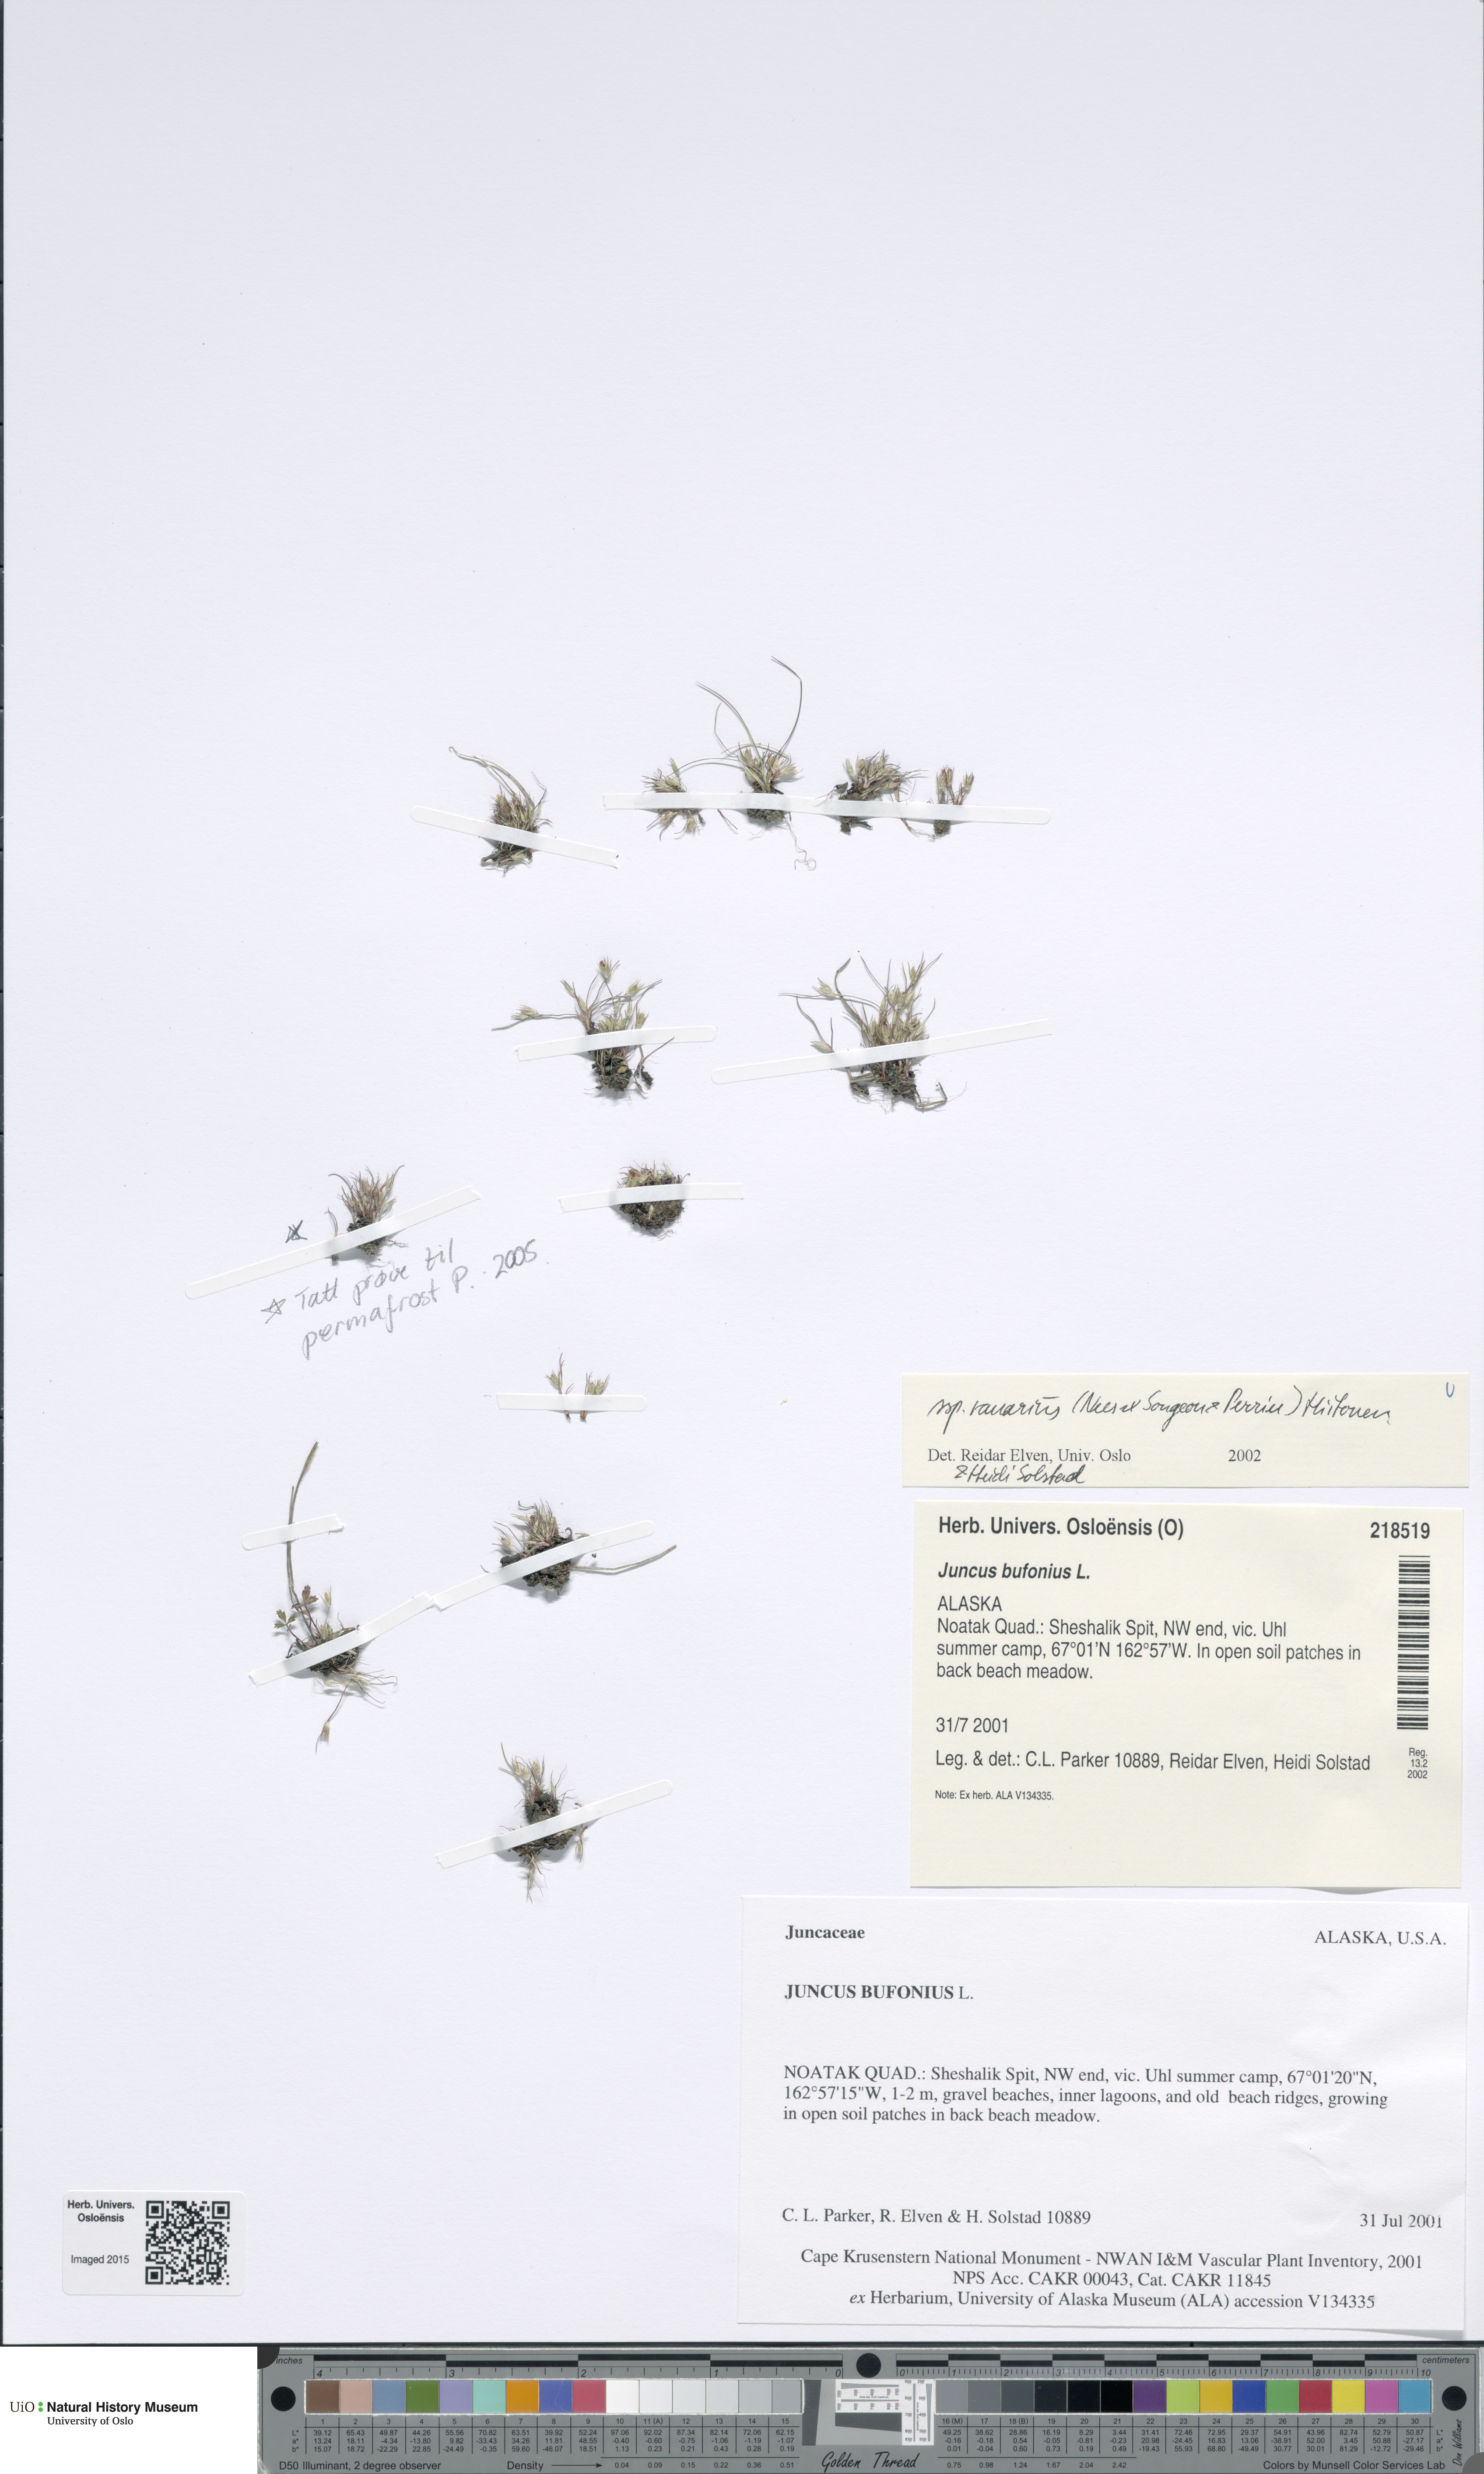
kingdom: Plantae
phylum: Tracheophyta
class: Liliopsida
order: Poales
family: Juncaceae
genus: Juncus
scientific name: Juncus ranarius
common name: Frog rush
